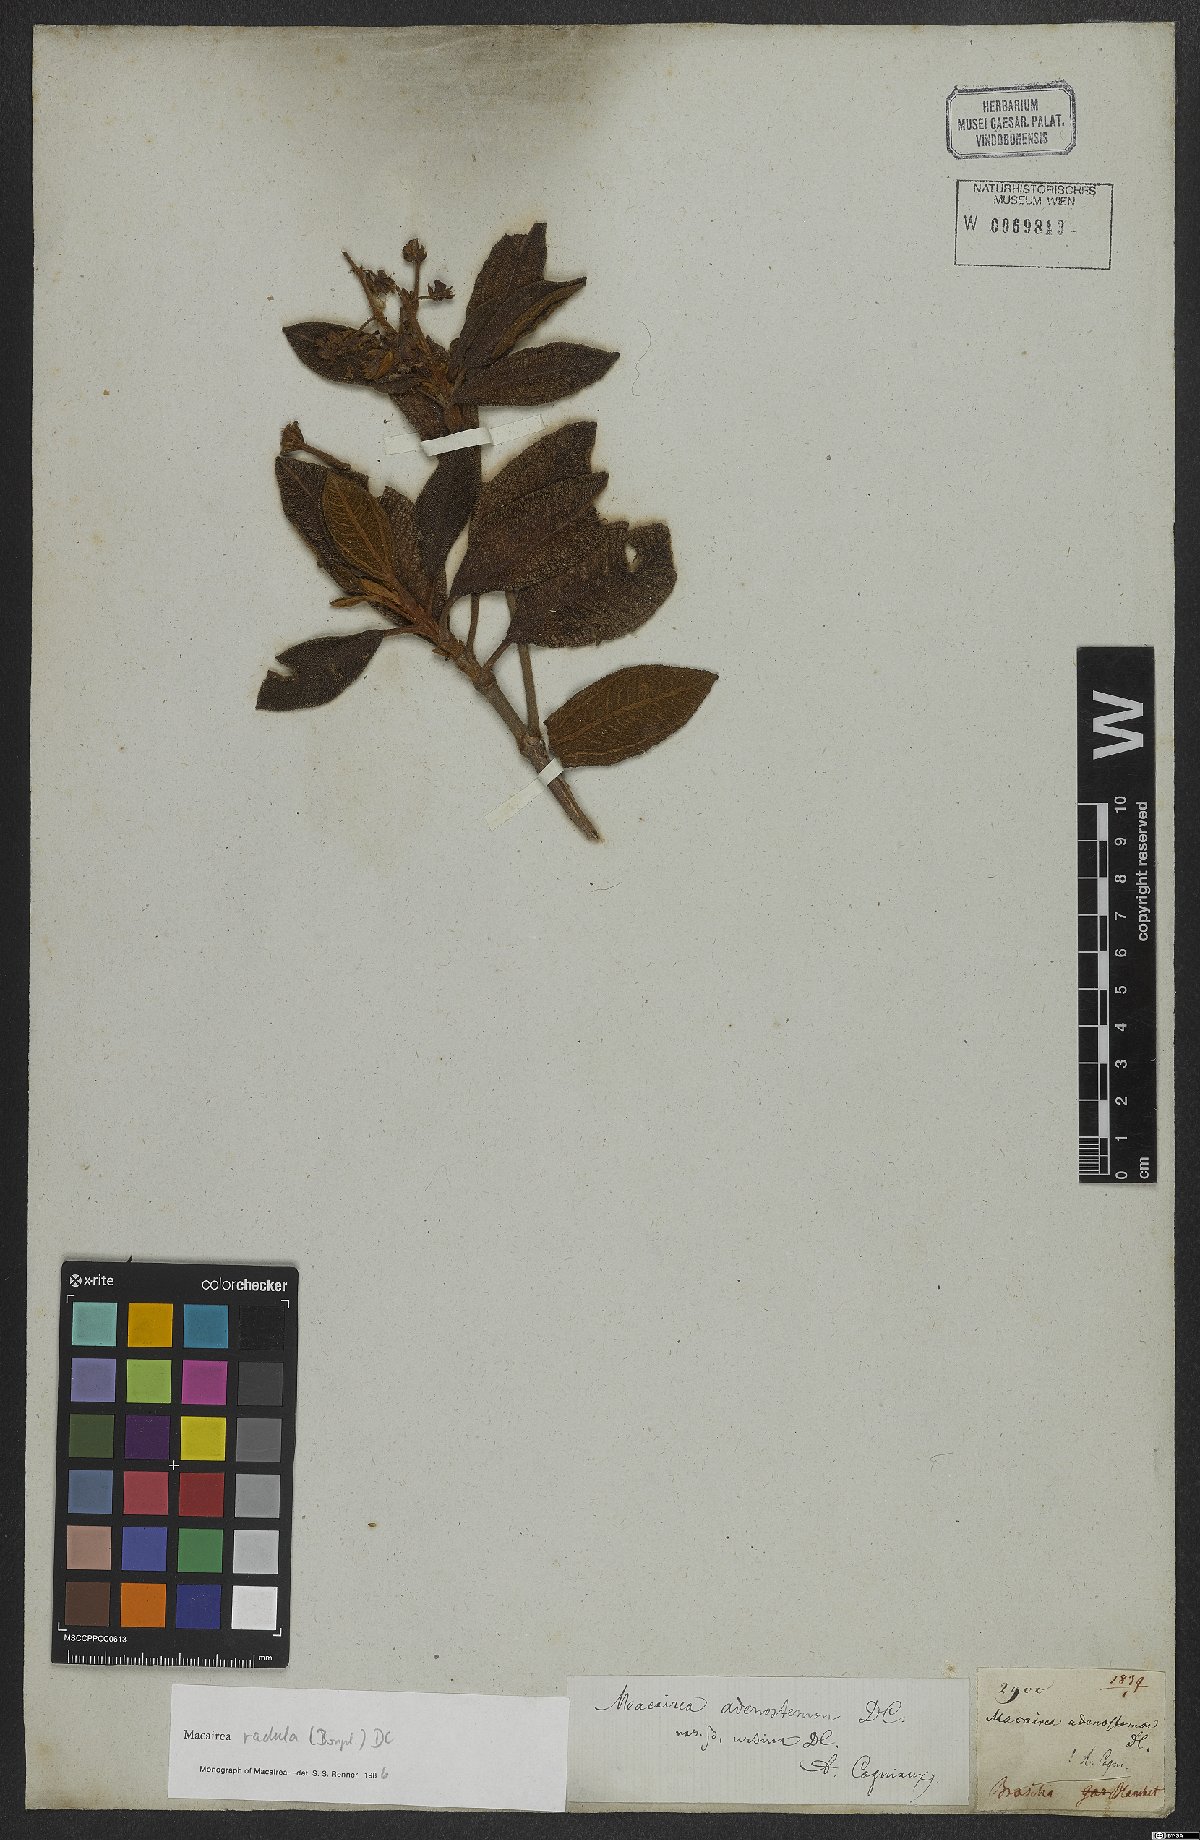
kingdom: Plantae
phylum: Tracheophyta
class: Magnoliopsida
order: Myrtales
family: Melastomataceae
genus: Macairea
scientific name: Macairea radula
